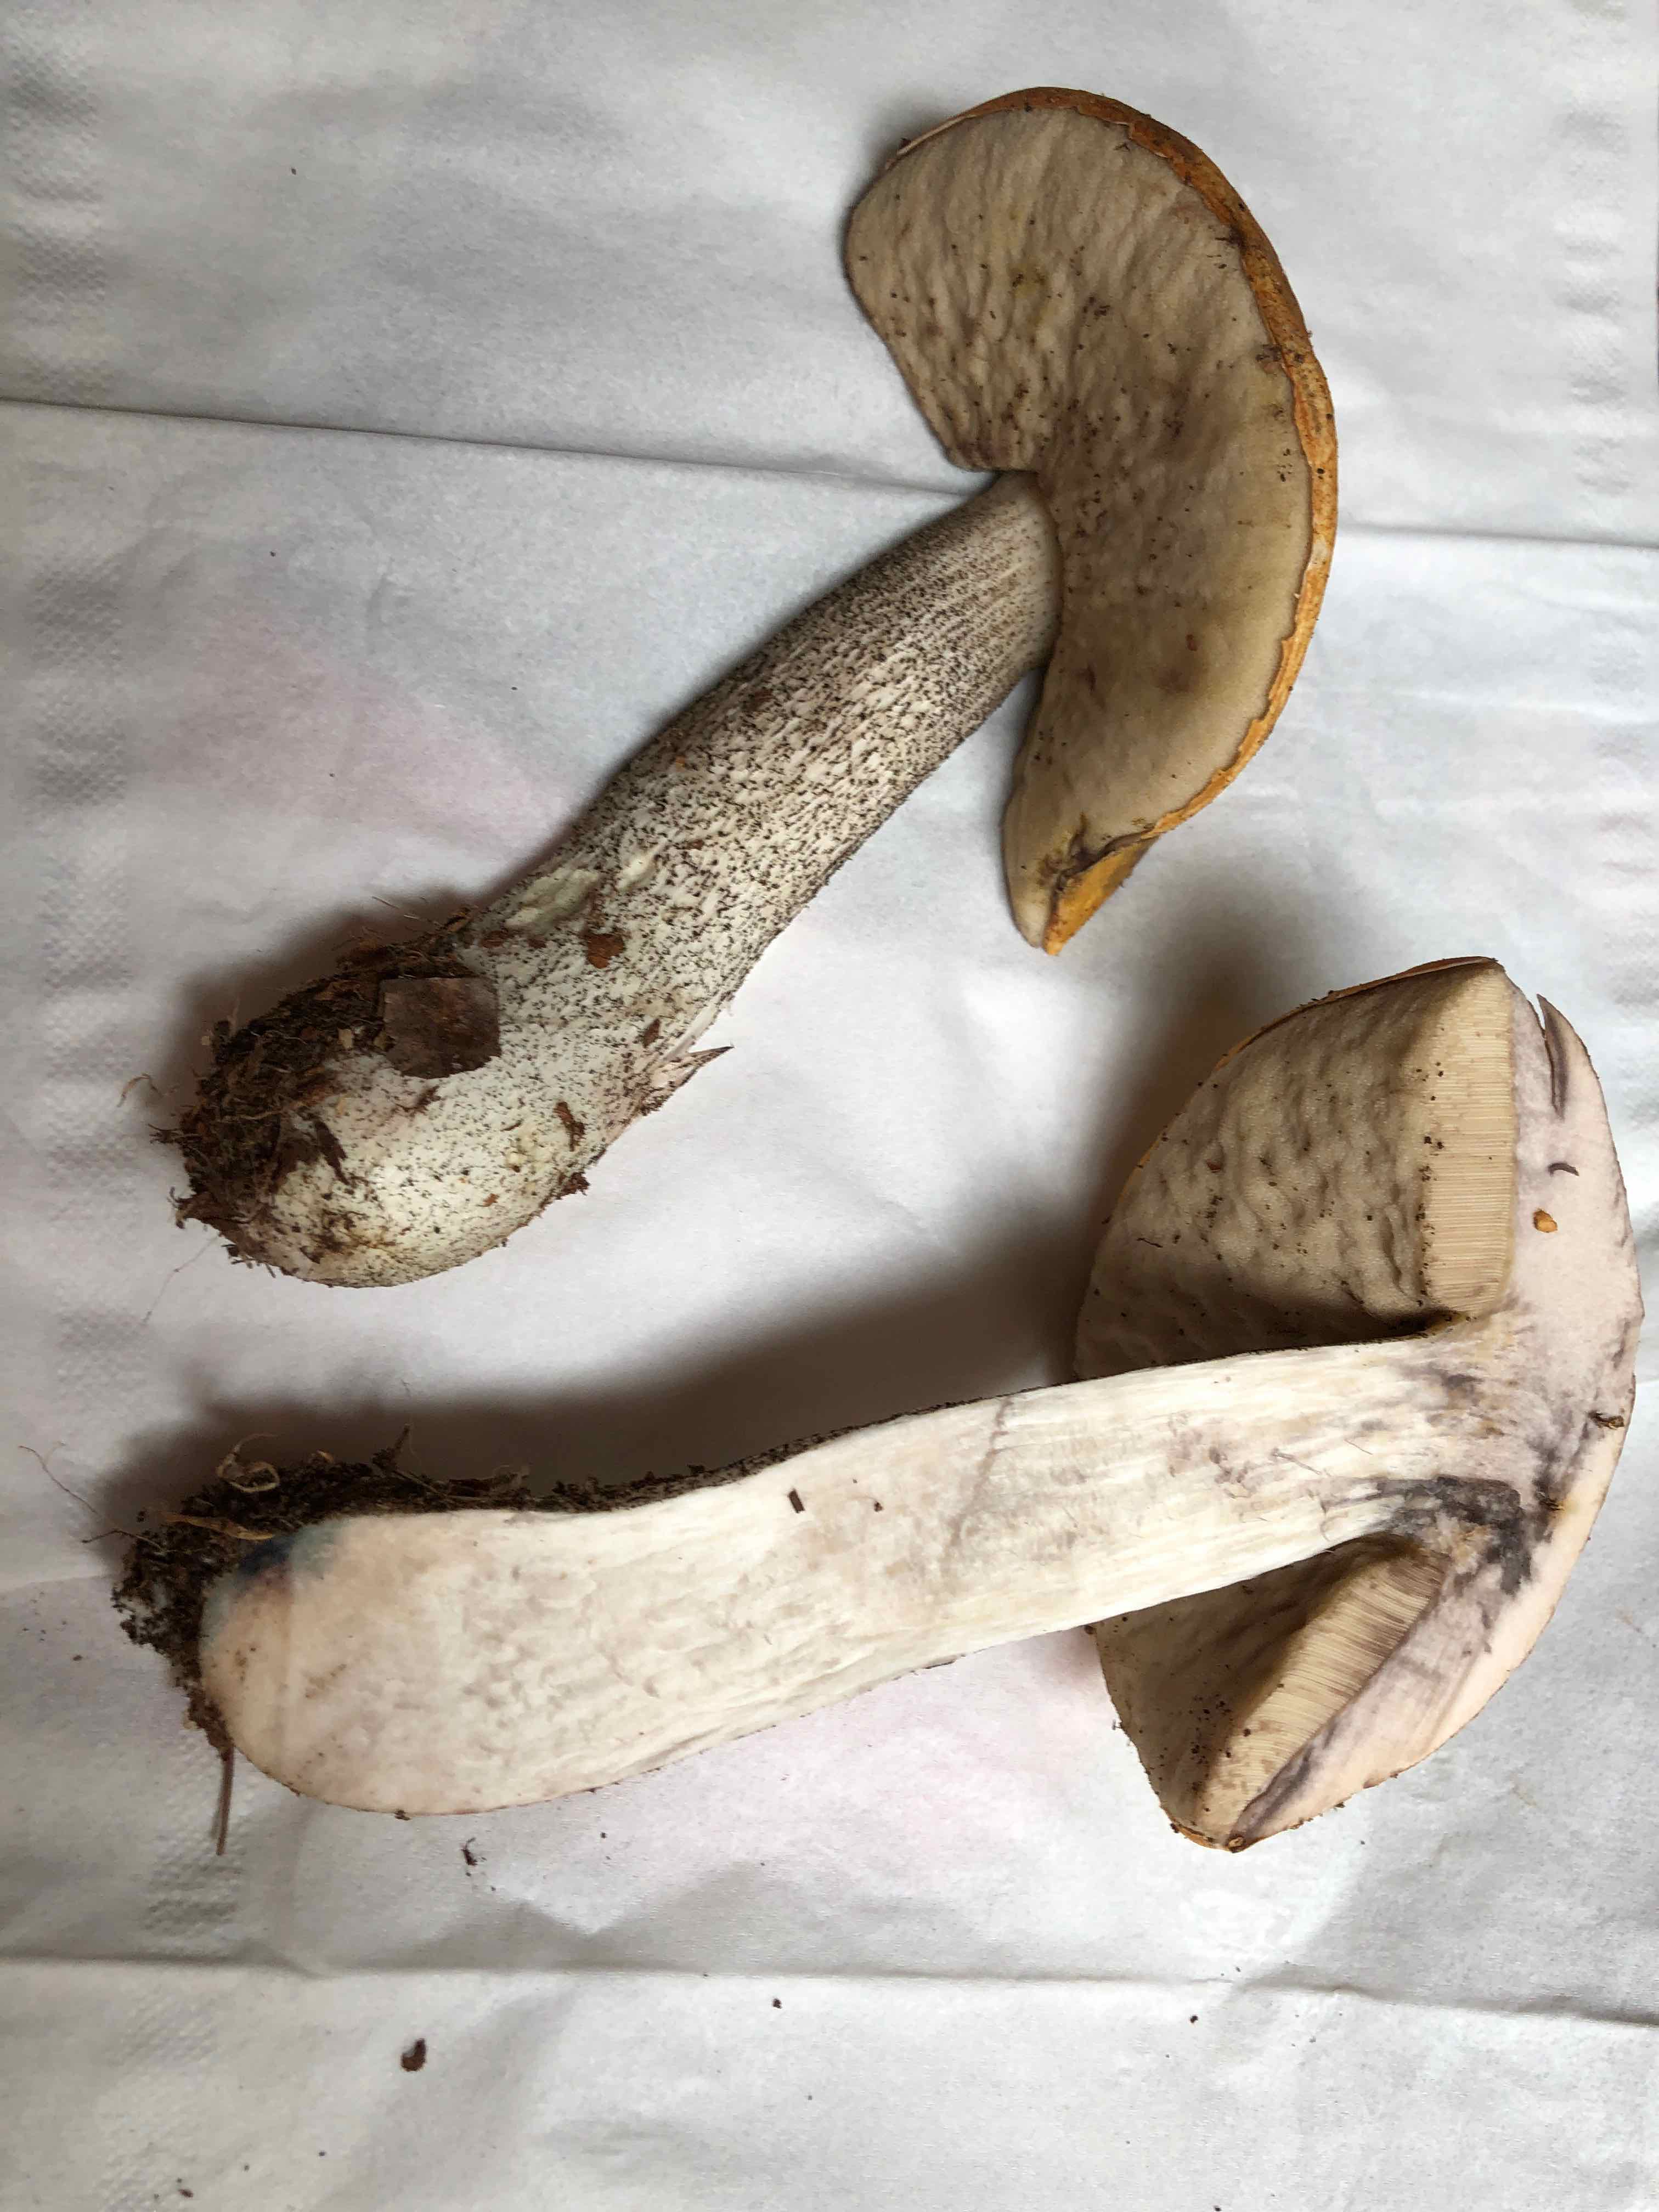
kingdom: Fungi
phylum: Basidiomycota
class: Agaricomycetes
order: Boletales
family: Boletaceae
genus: Leccinum
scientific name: Leccinum versipelle
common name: orange skælrørhat
